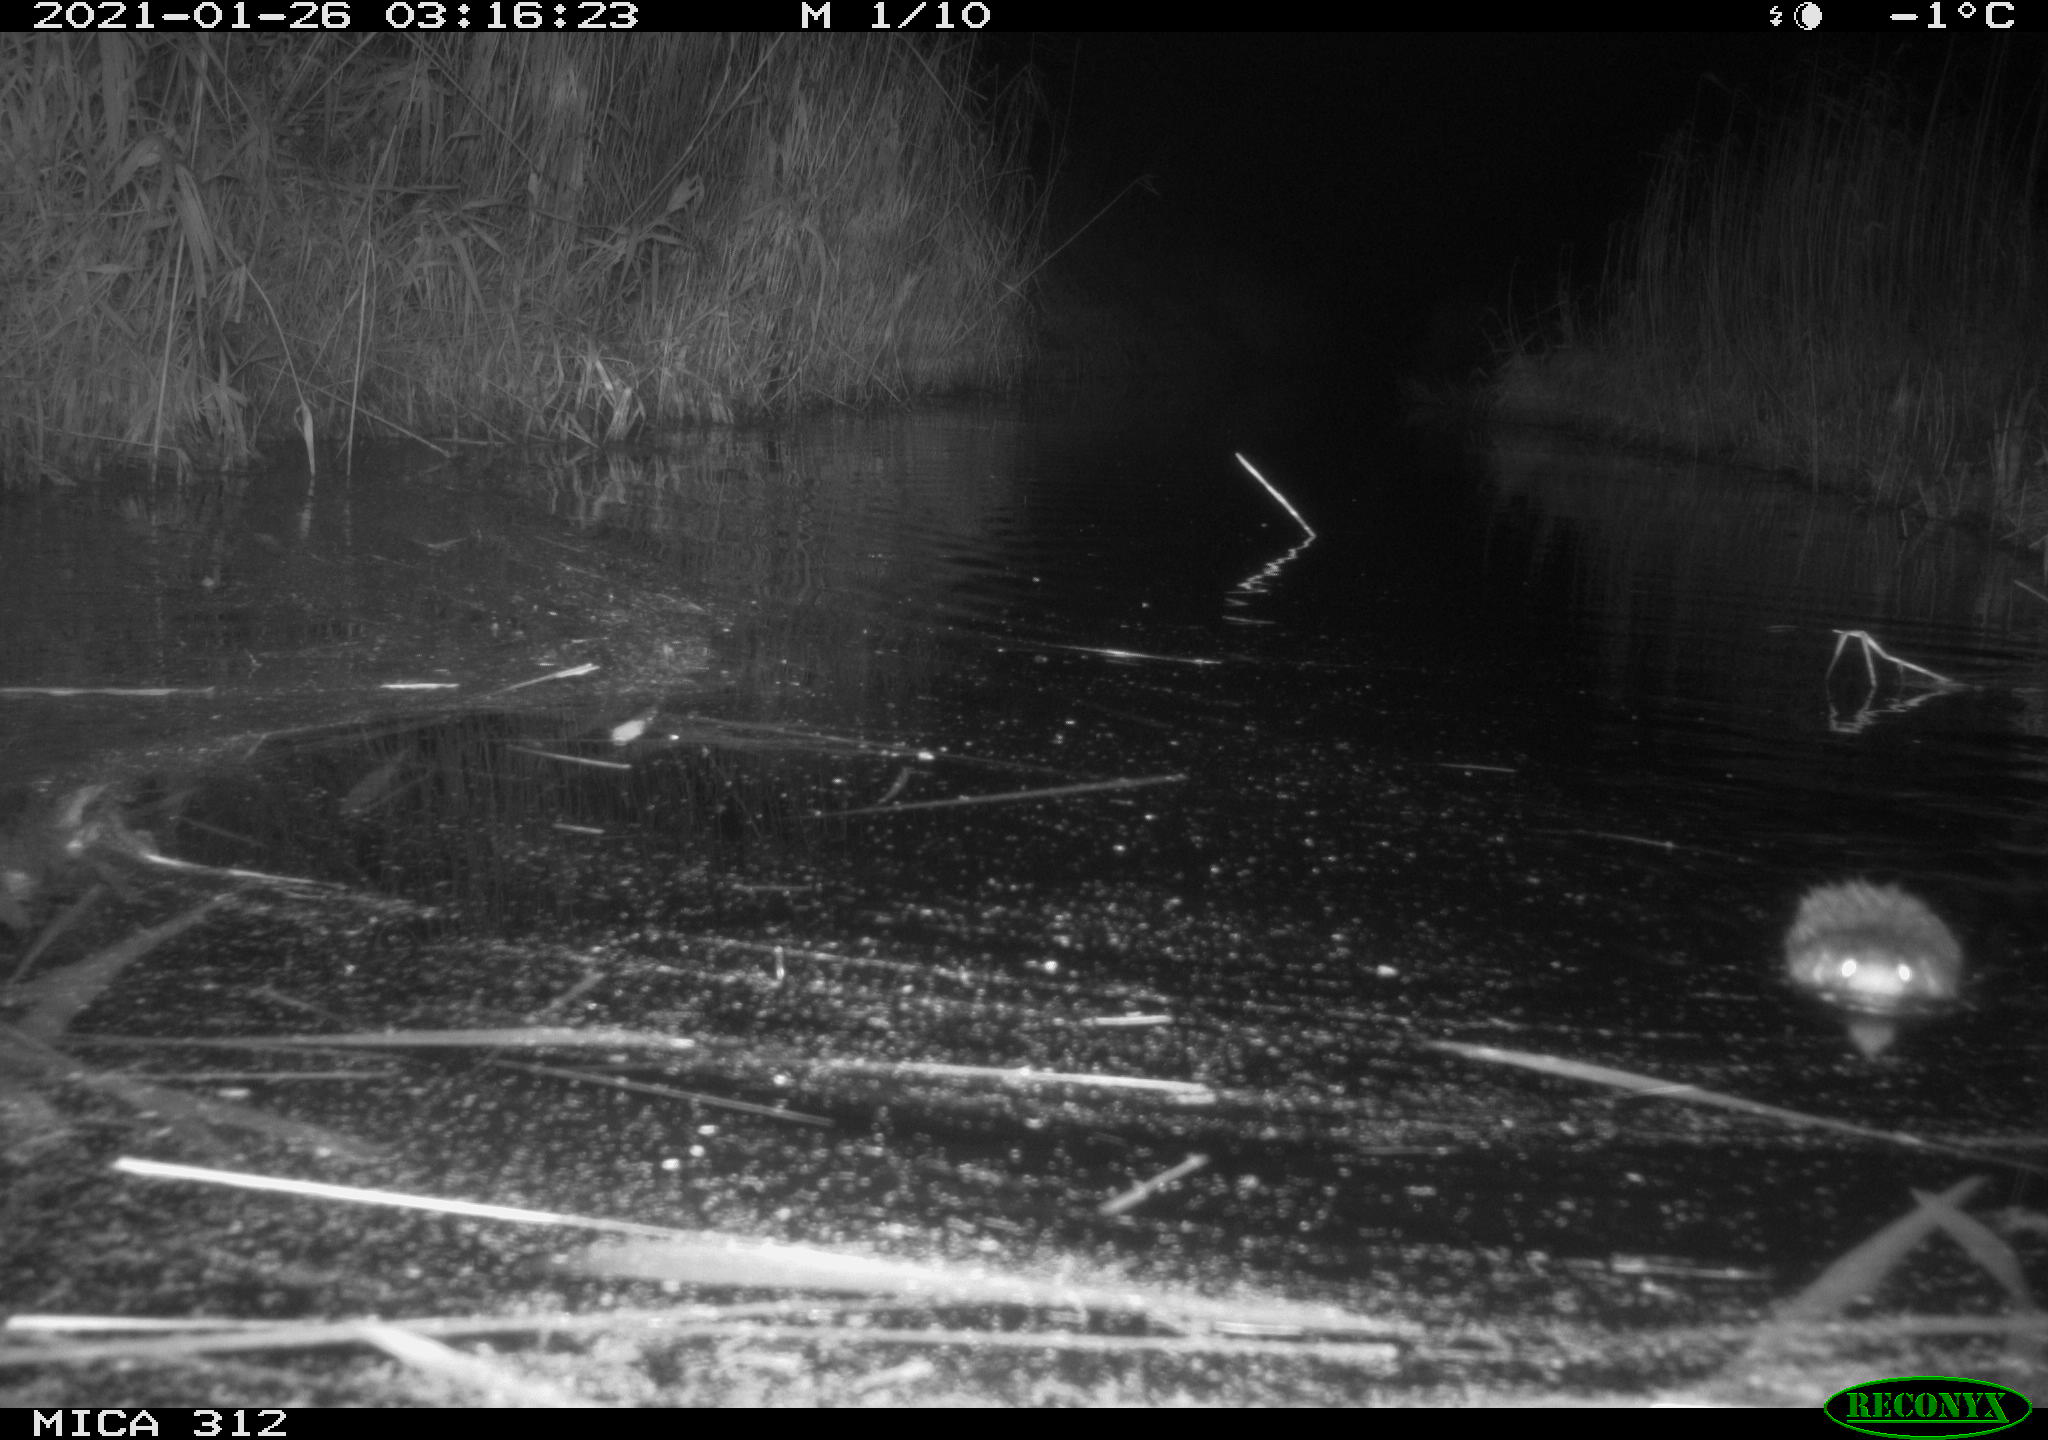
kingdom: Animalia
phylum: Chordata
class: Mammalia
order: Rodentia
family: Muridae
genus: Rattus
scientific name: Rattus norvegicus
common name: Brown rat
